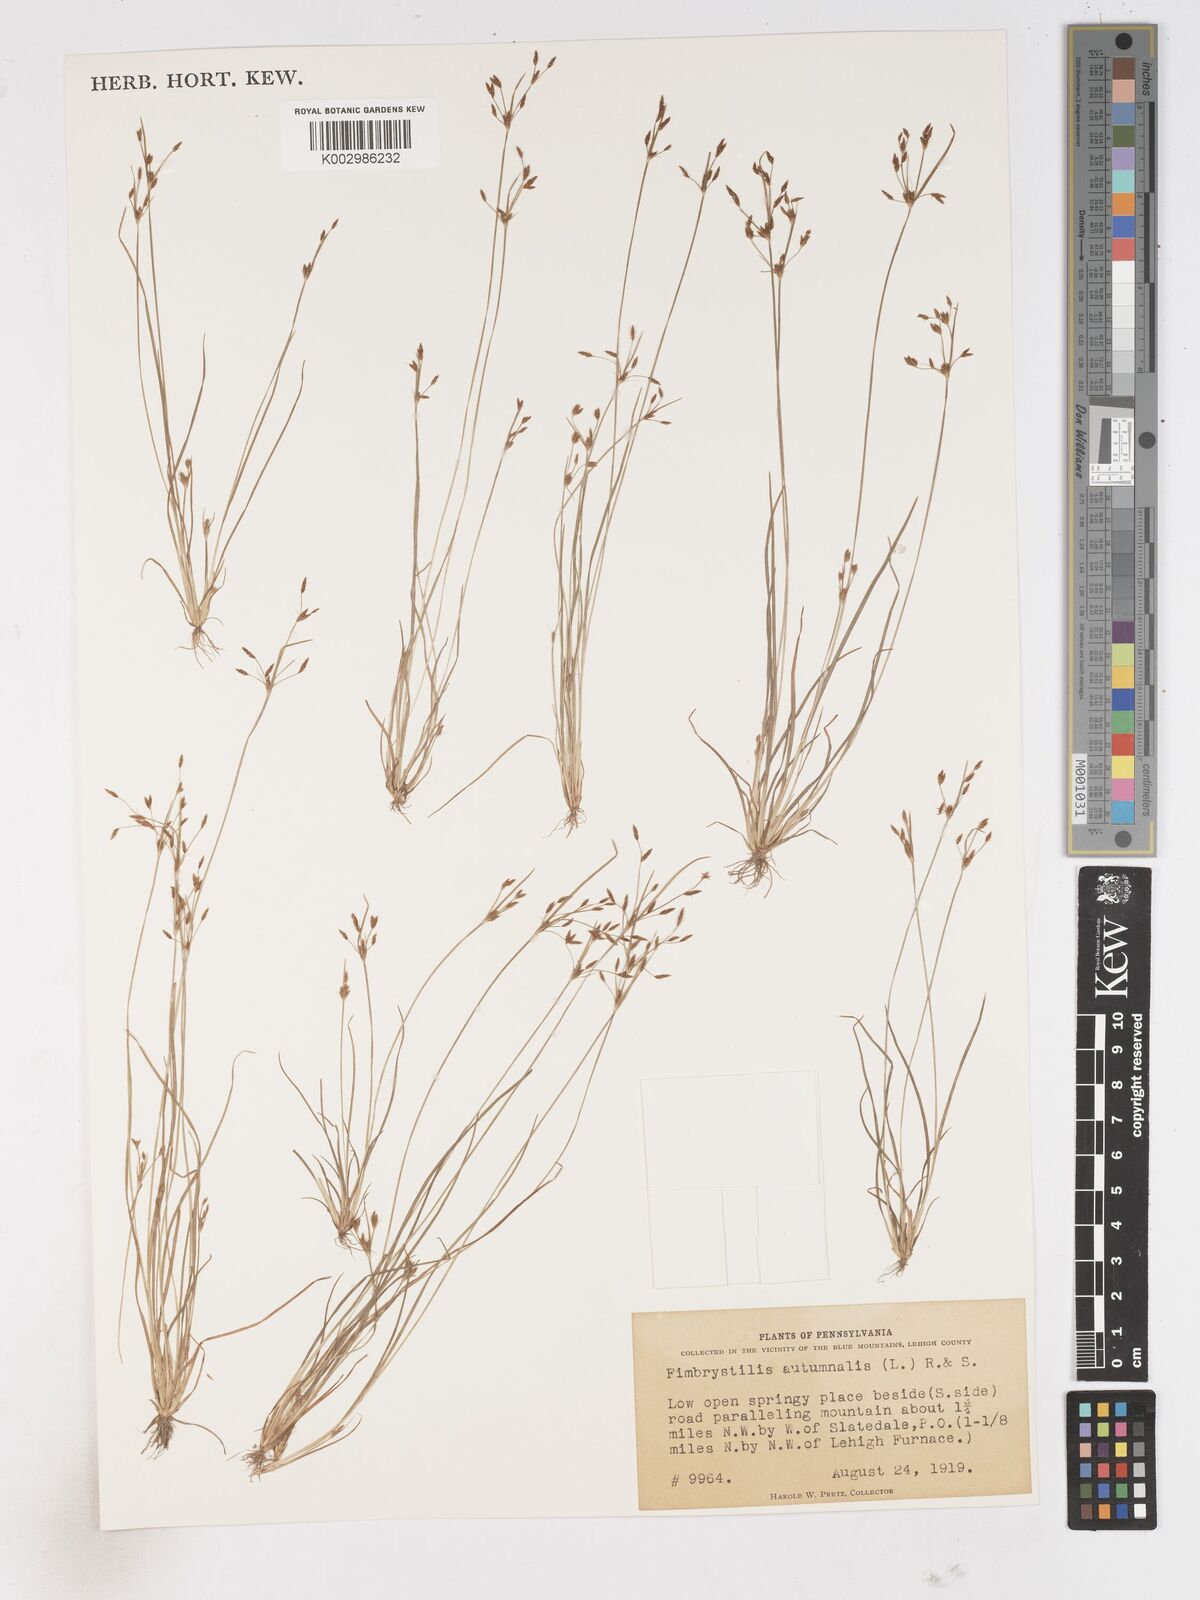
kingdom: Plantae
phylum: Tracheophyta
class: Liliopsida
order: Poales
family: Cyperaceae
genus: Fimbristylis
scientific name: Fimbristylis autumnalis
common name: Slender fimbristylis
